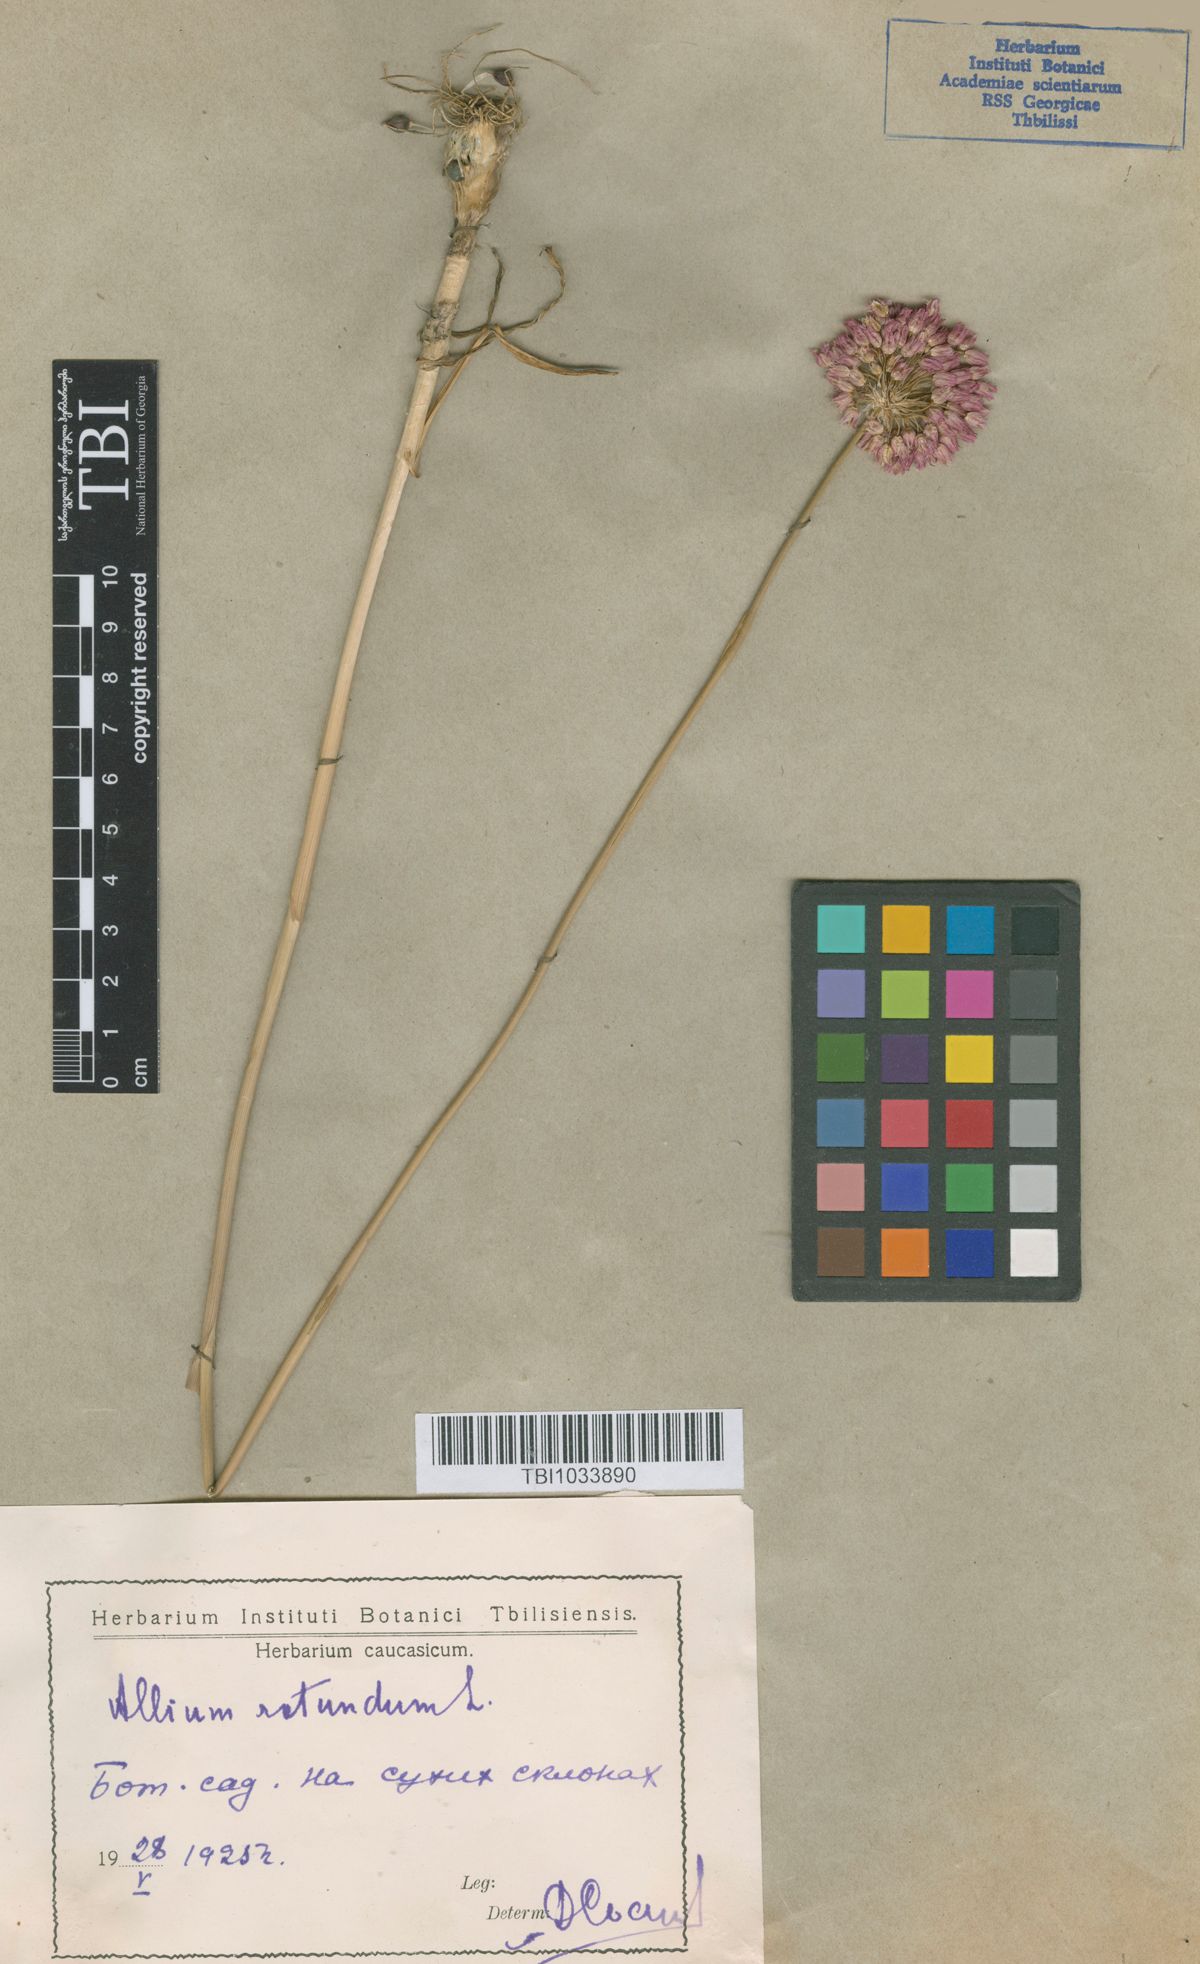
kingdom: Plantae
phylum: Tracheophyta
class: Liliopsida
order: Asparagales
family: Amaryllidaceae
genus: Allium
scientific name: Allium rotundum
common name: Sand leek
